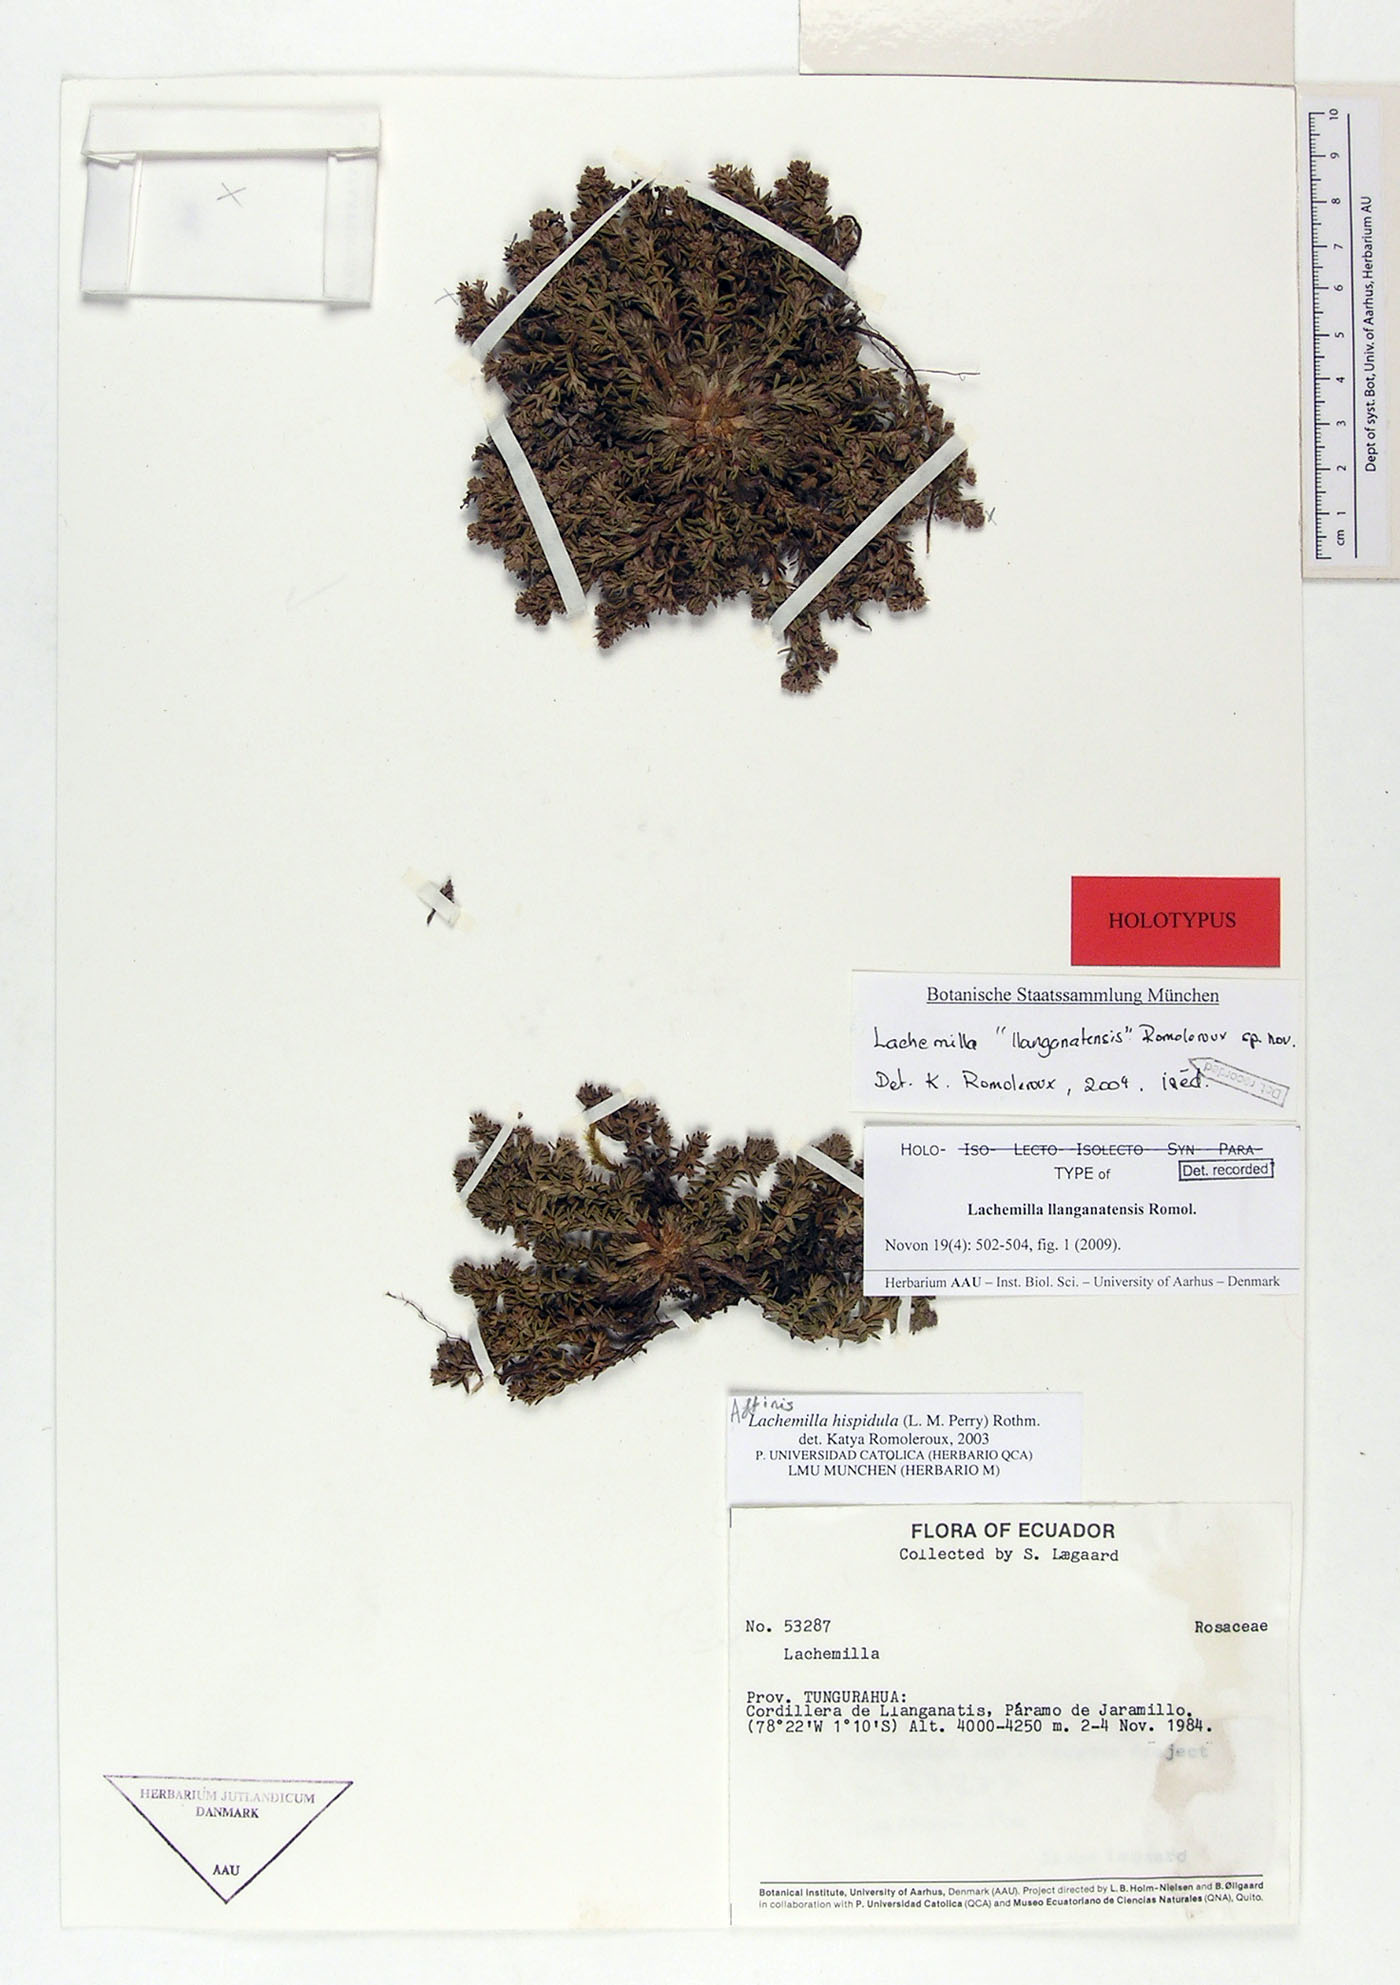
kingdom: Plantae
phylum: Tracheophyta
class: Magnoliopsida
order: Rosales
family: Rosaceae
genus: Lachemilla
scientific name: Lachemilla llanganatensis
